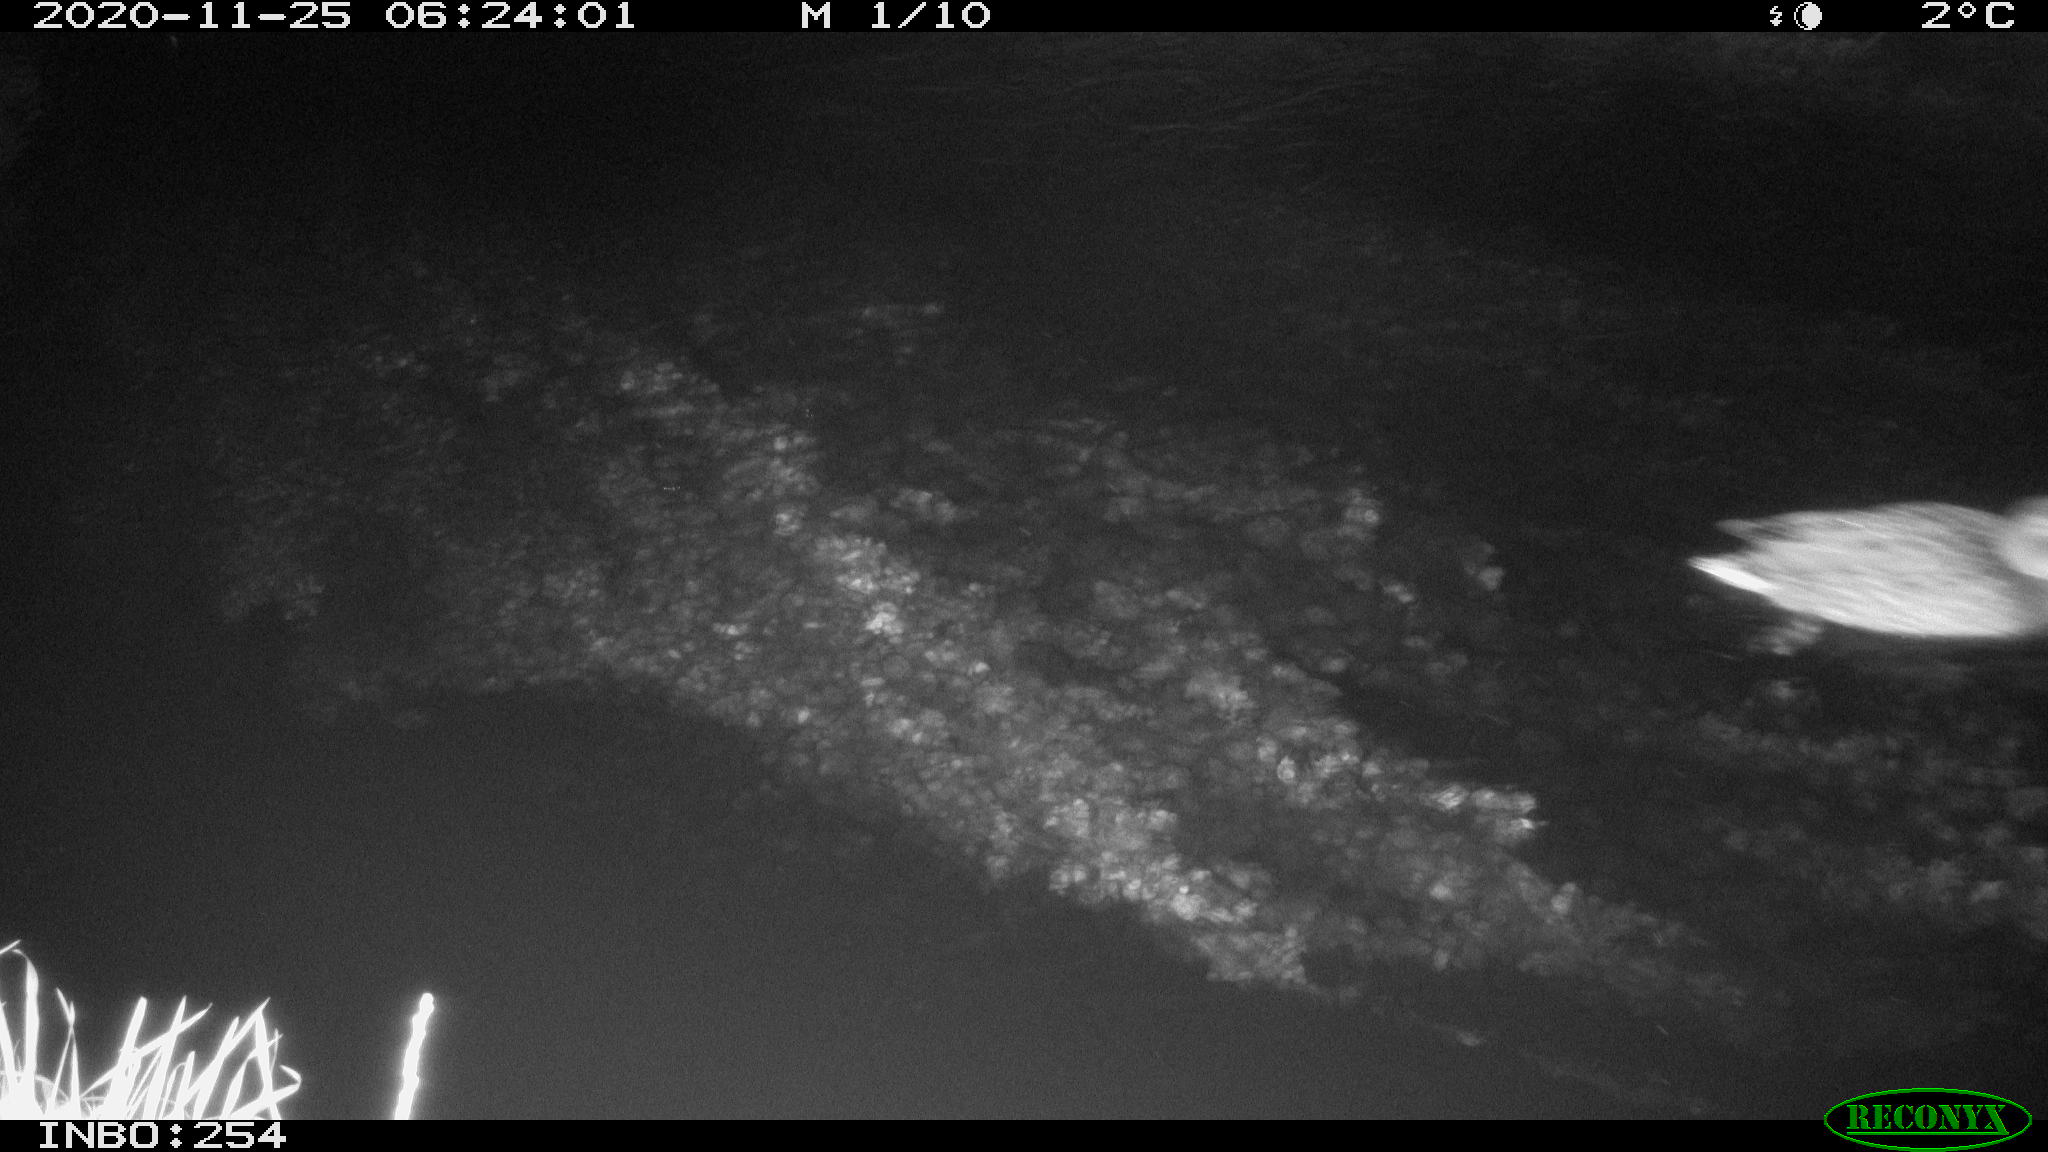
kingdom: Animalia
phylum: Chordata
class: Aves
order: Anseriformes
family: Anatidae
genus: Anas
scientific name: Anas platyrhynchos
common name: Mallard
